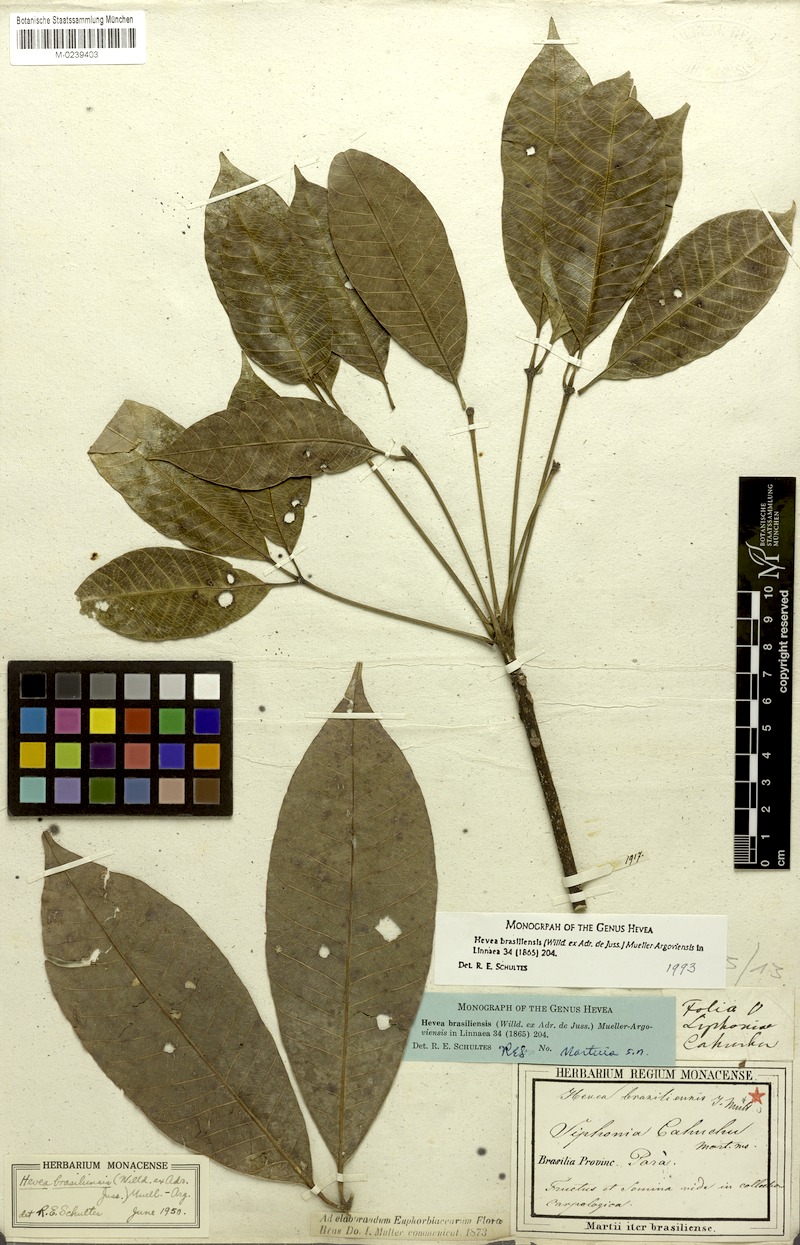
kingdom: Plantae
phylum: Tracheophyta
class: Magnoliopsida
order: Malpighiales
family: Euphorbiaceae
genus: Hevea
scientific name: Hevea brasiliensis
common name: Natural rubber
